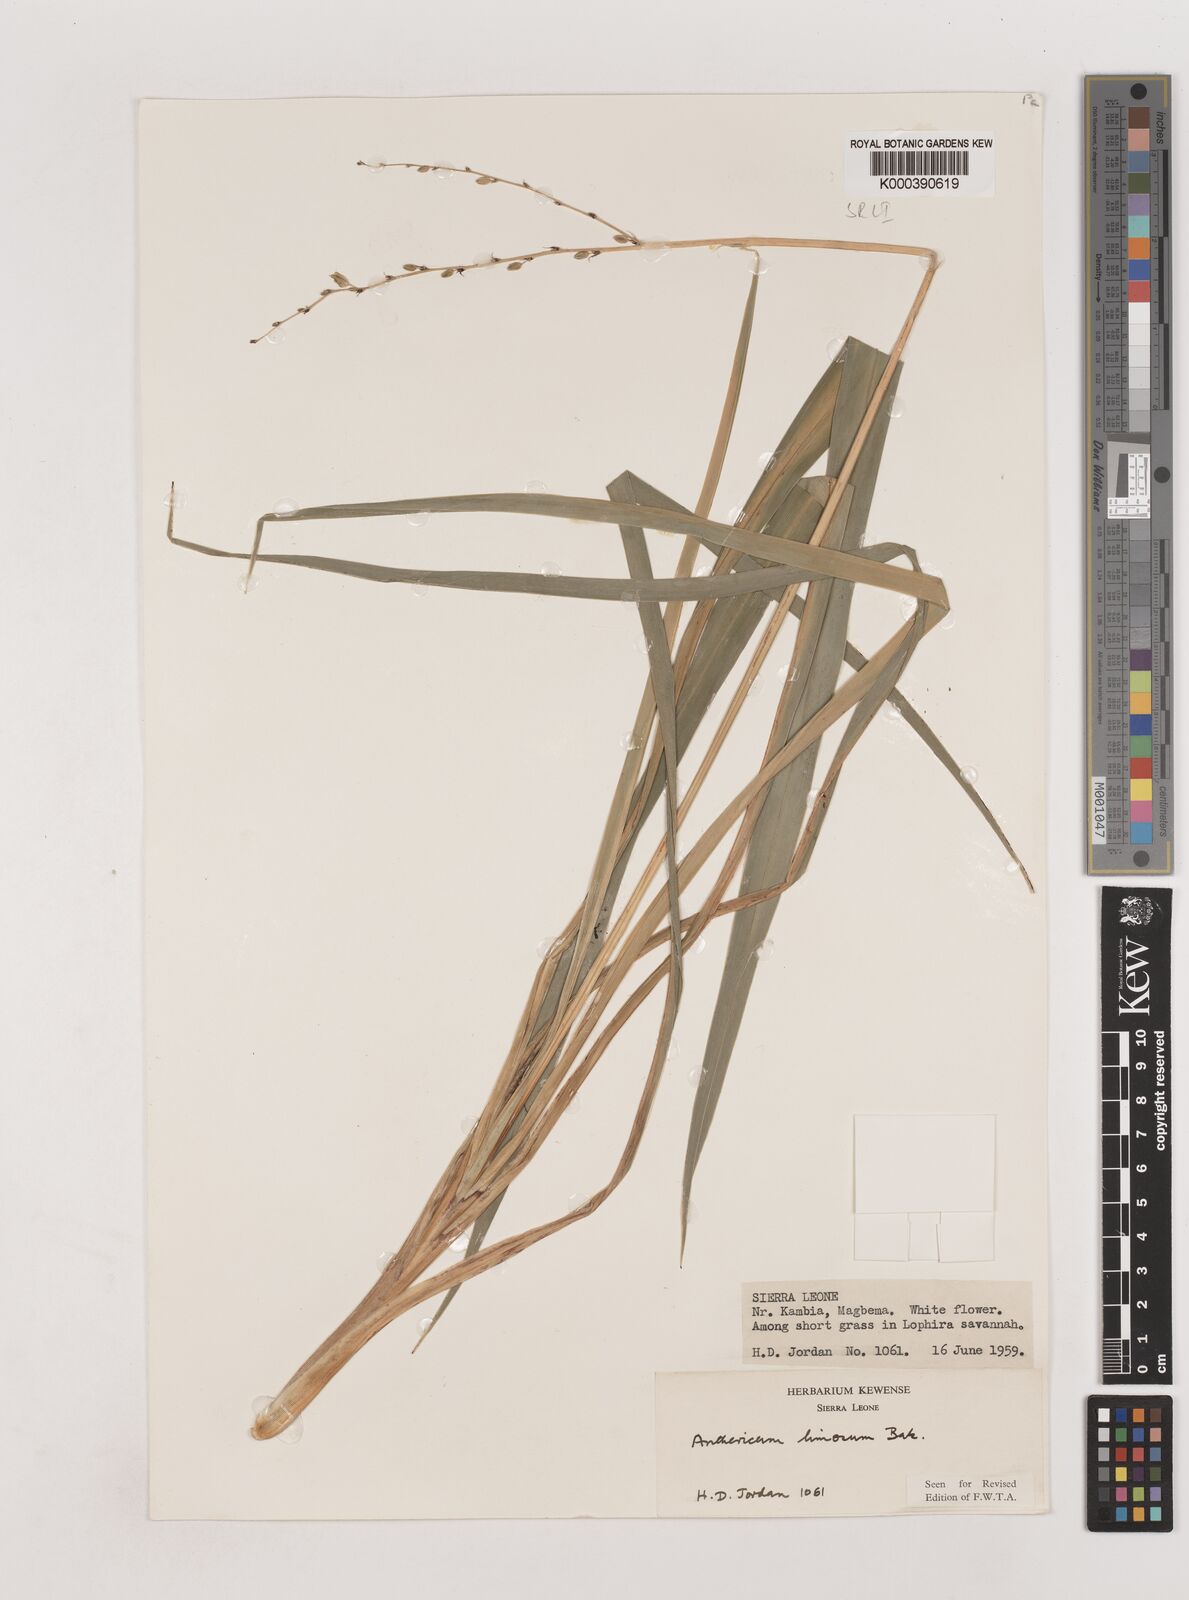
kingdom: Plantae
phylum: Tracheophyta
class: Liliopsida
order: Asparagales
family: Asparagaceae
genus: Chlorophytum
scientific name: Chlorophytum limosum
